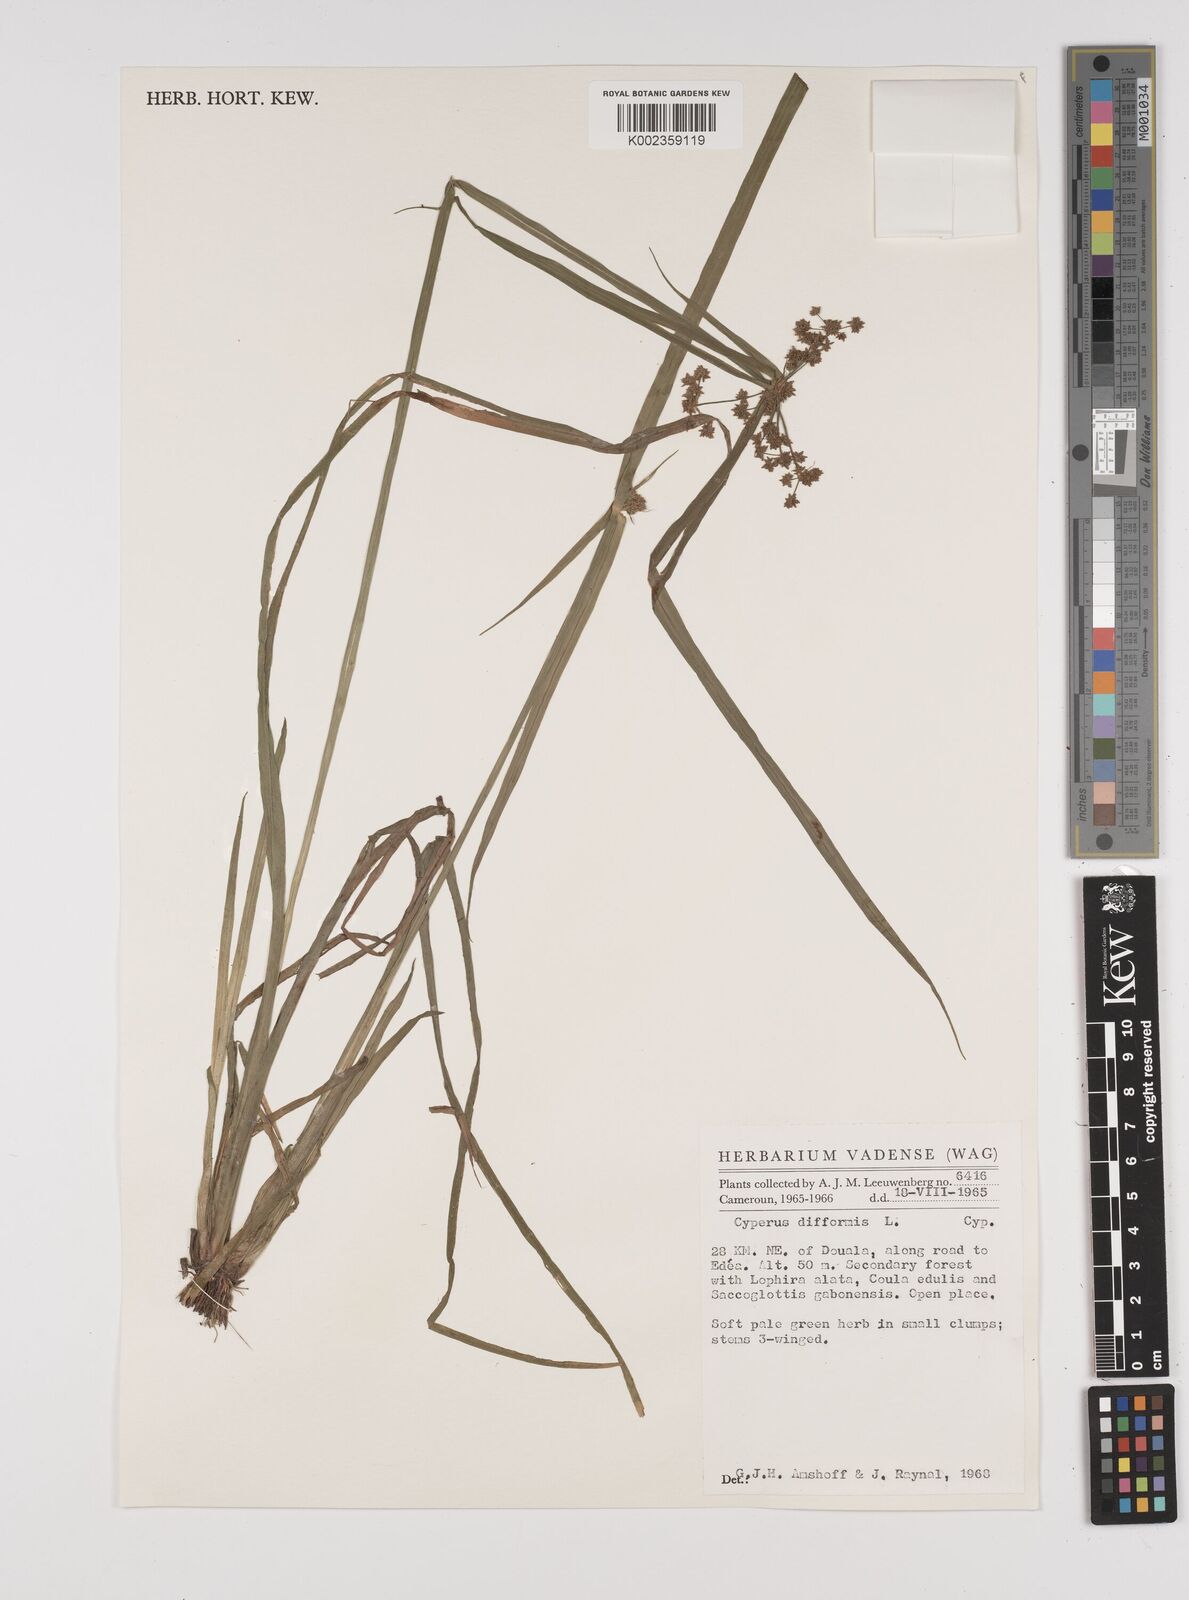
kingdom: Plantae
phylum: Tracheophyta
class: Liliopsida
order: Poales
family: Cyperaceae
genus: Cyperus
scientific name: Cyperus difformis
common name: Variable flatsedge
